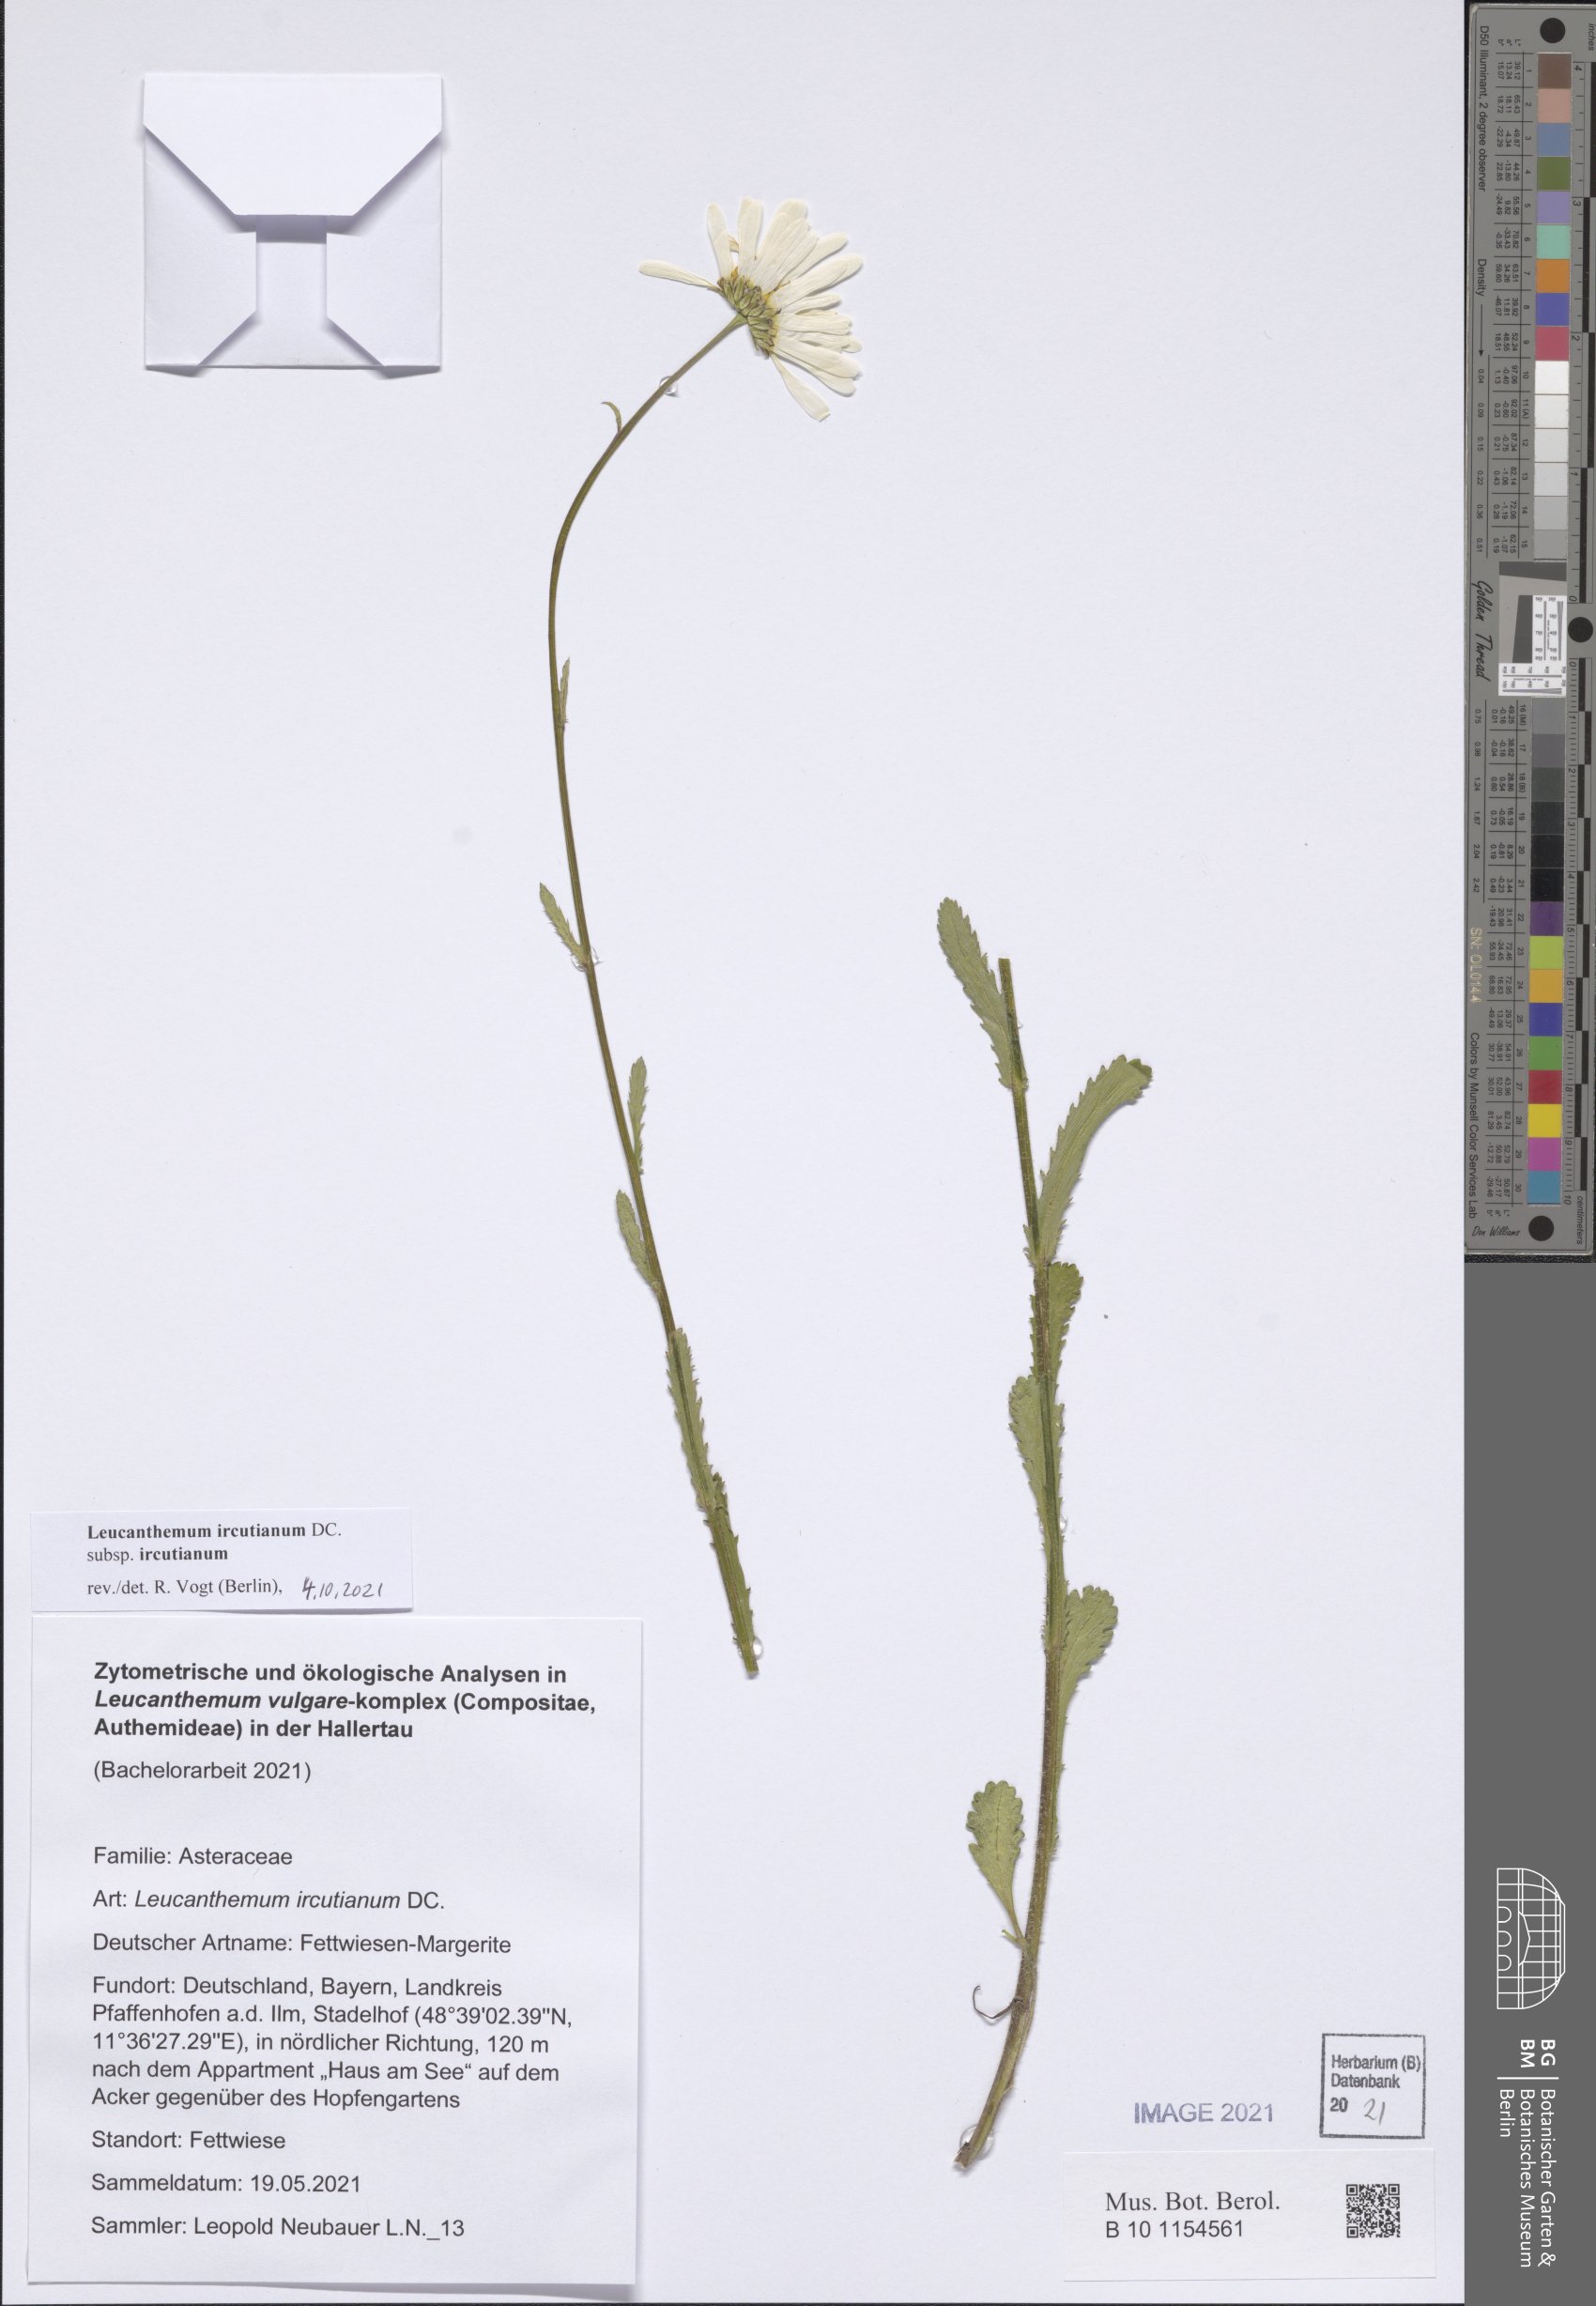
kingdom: Plantae
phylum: Tracheophyta
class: Magnoliopsida
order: Asterales
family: Asteraceae
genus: Leucanthemum
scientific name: Leucanthemum ircutianum
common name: Daisy
